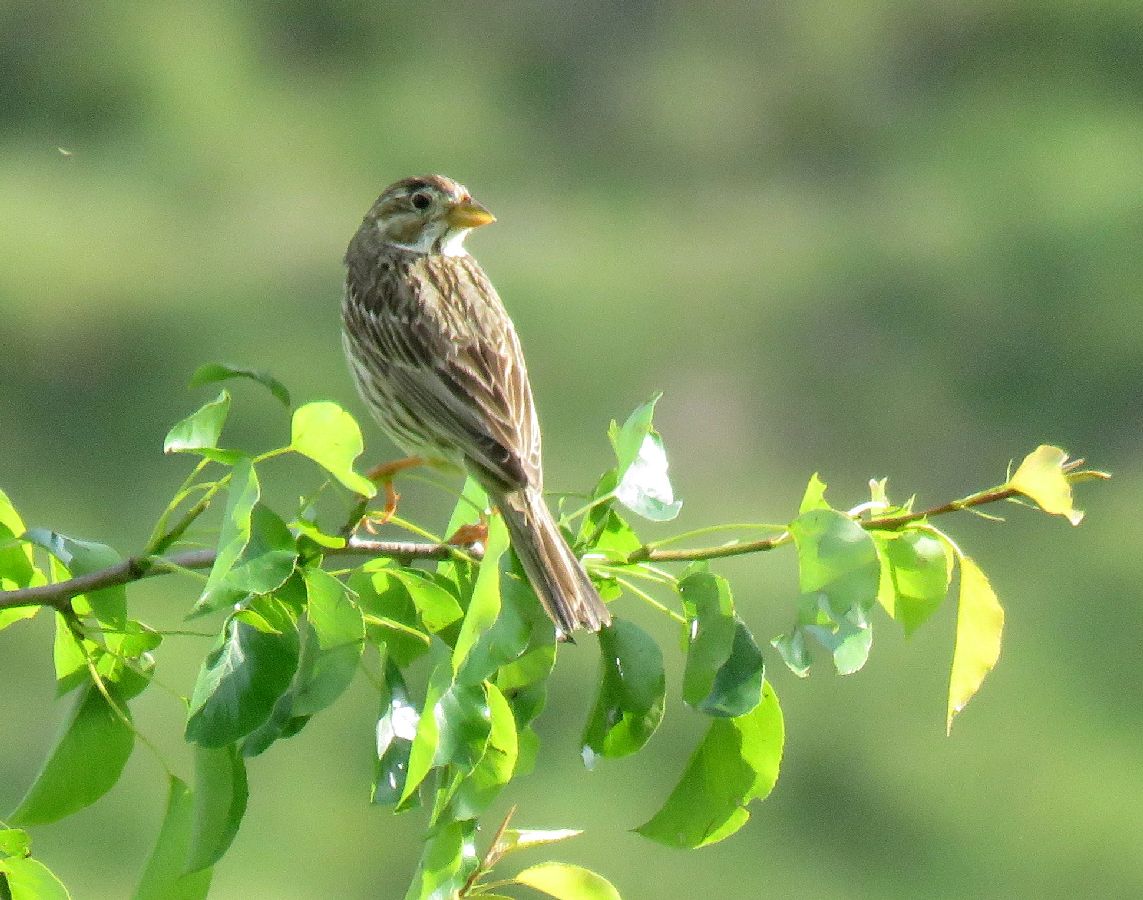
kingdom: Animalia
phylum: Chordata
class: Aves
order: Passeriformes
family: Emberizidae
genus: Emberiza
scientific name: Emberiza calandra
